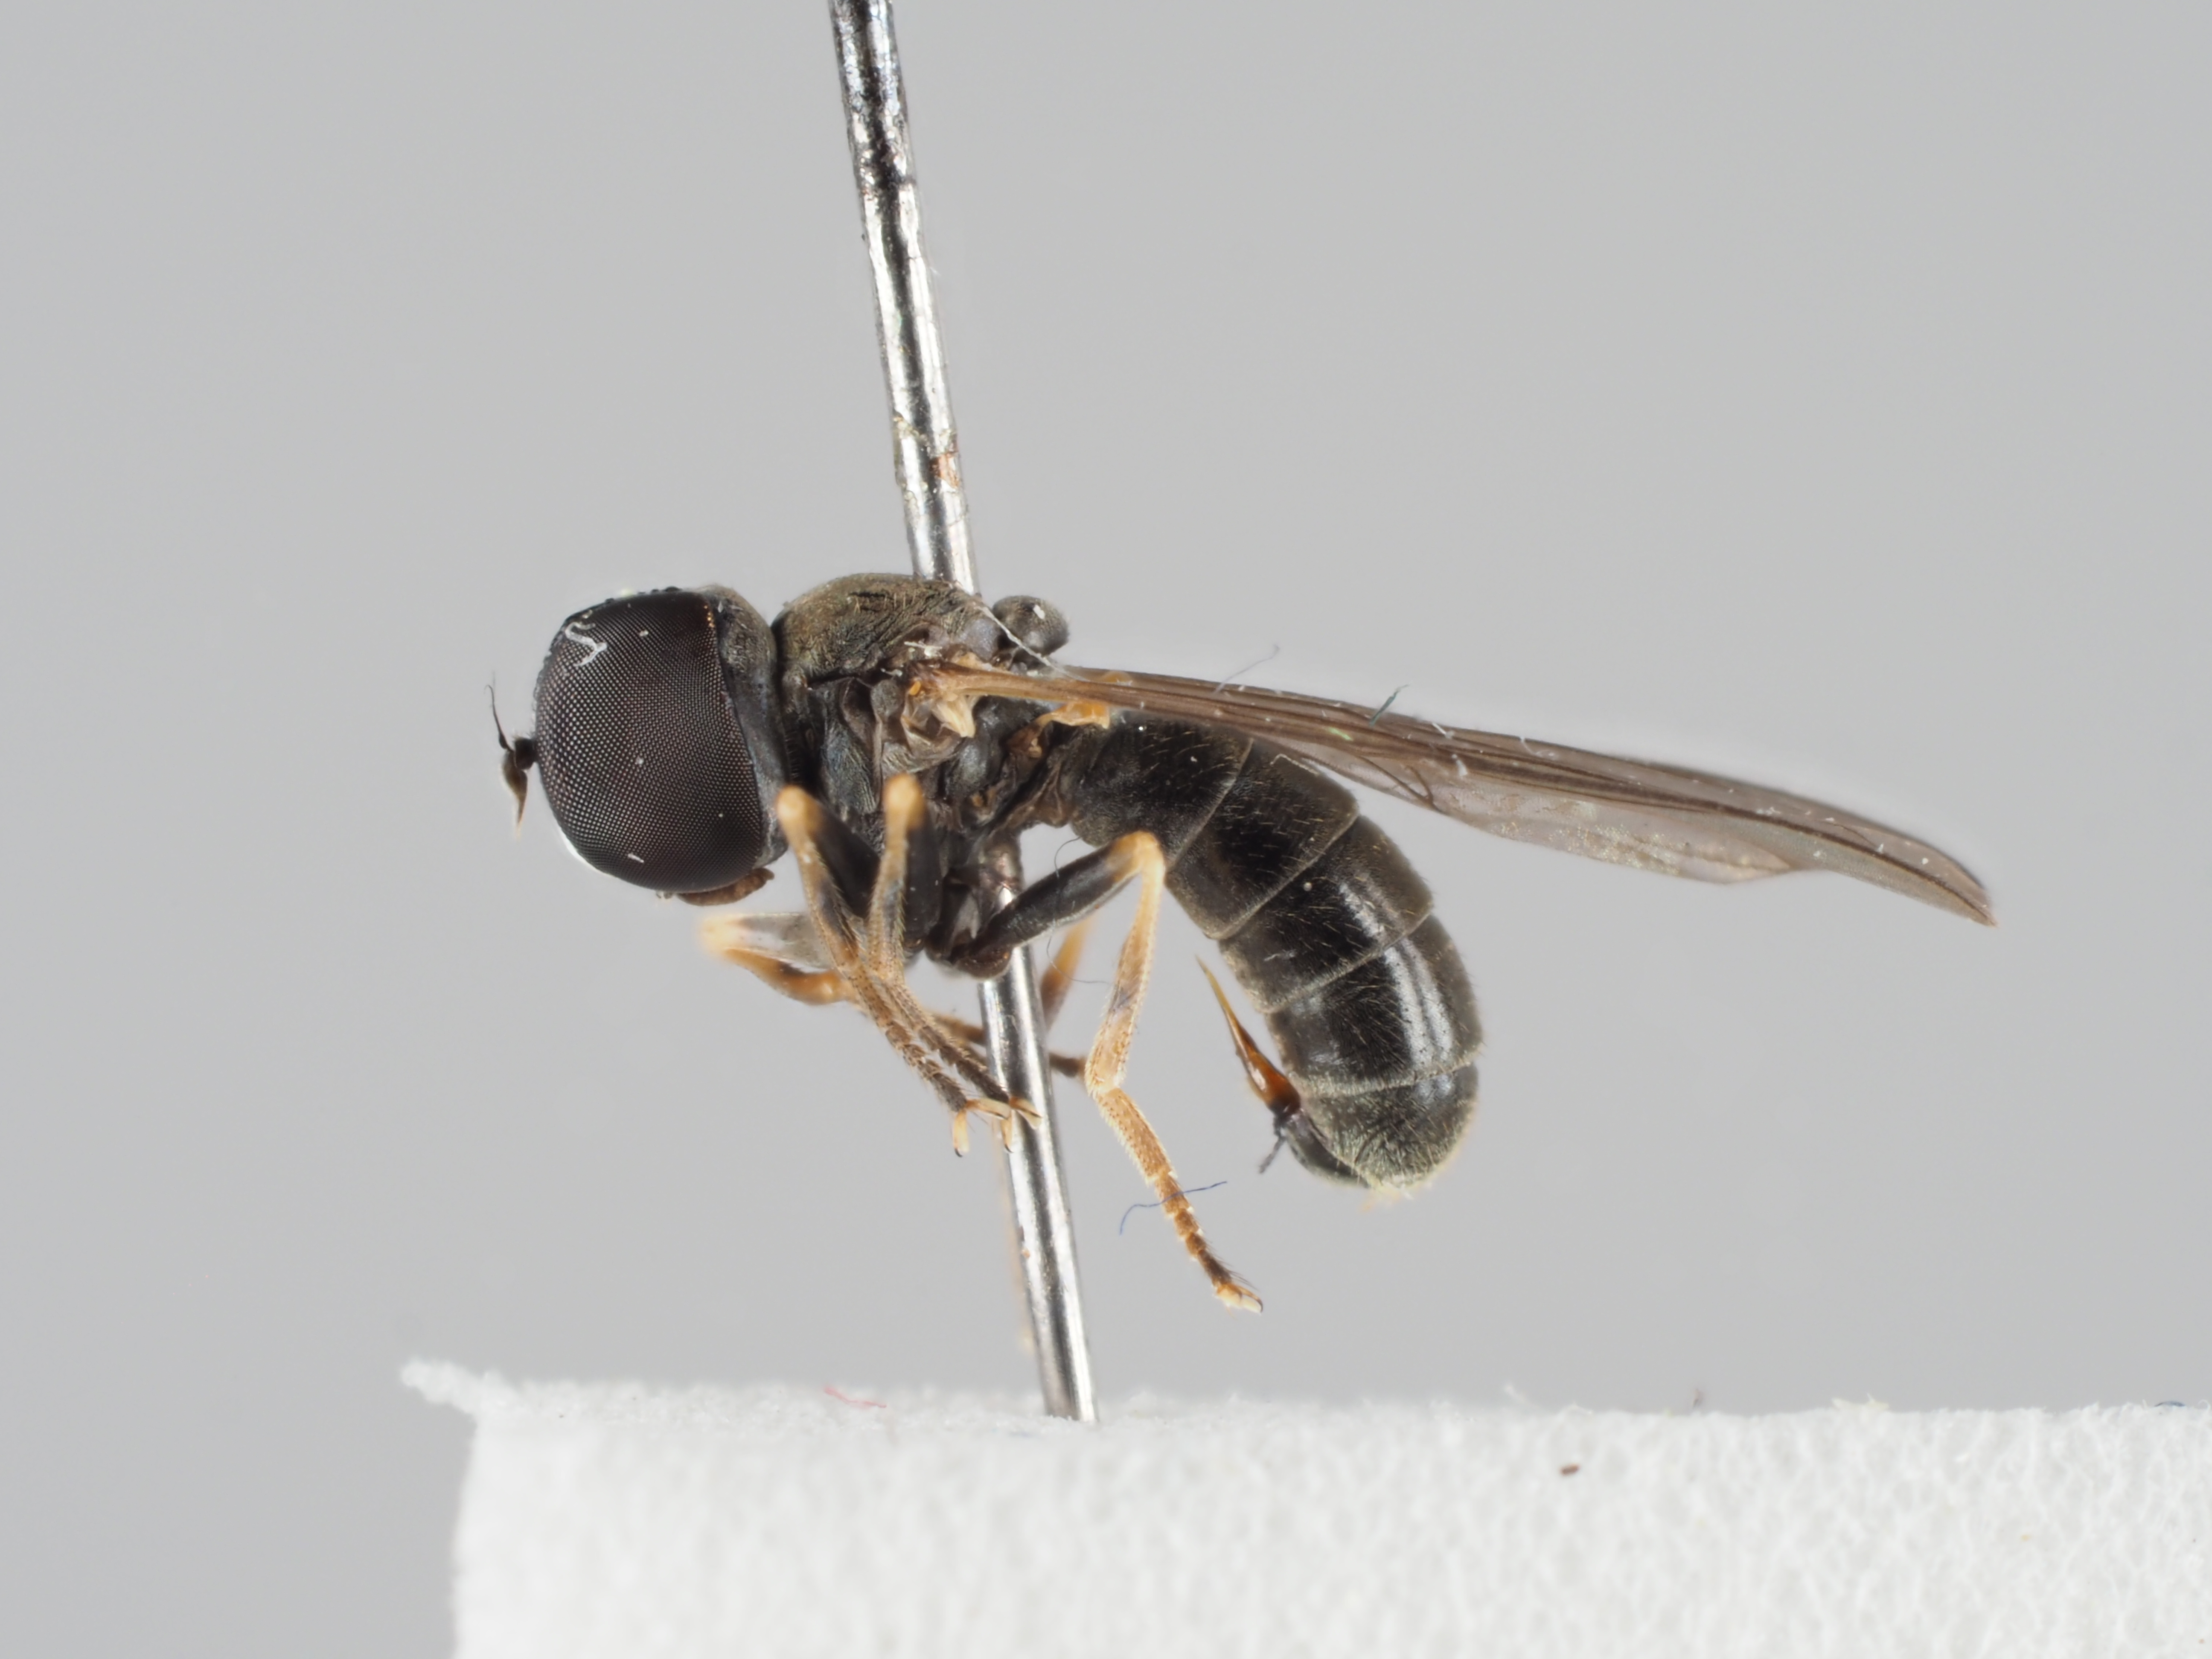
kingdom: Animalia
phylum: Arthropoda
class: Insecta
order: Diptera
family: Pipunculidae
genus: Dorylomorpha
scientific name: Dorylomorpha confusa
